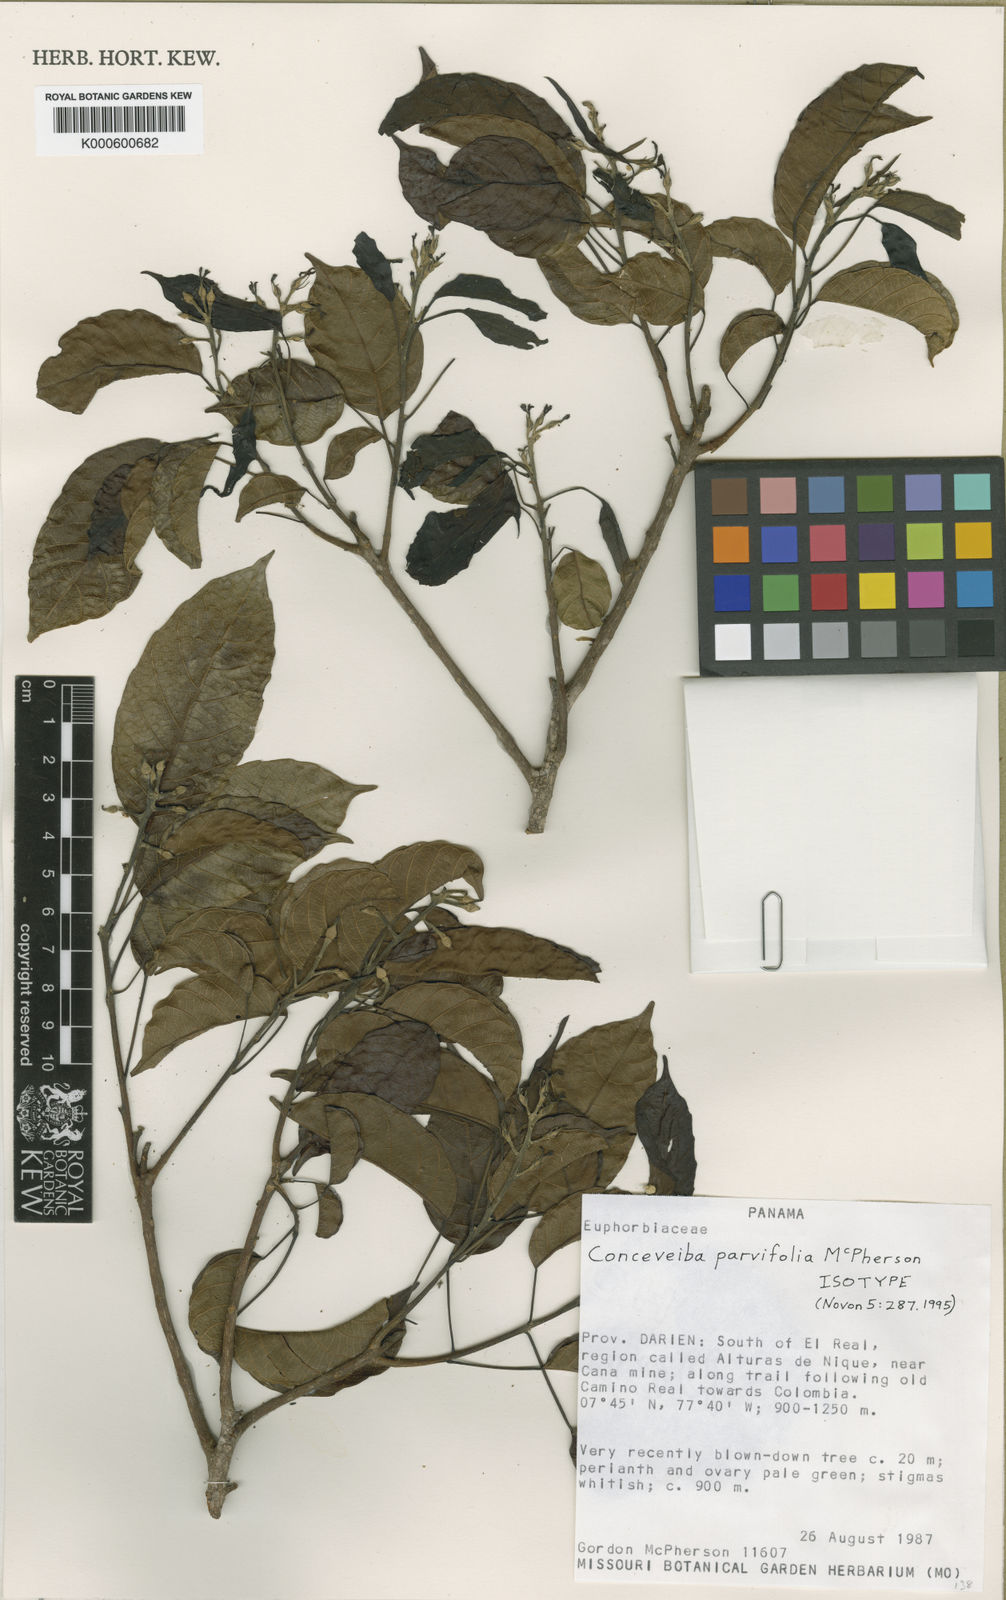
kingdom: Plantae
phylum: Tracheophyta
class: Magnoliopsida
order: Malpighiales
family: Euphorbiaceae
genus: Conceveiba
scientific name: Conceveiba parvifolia
